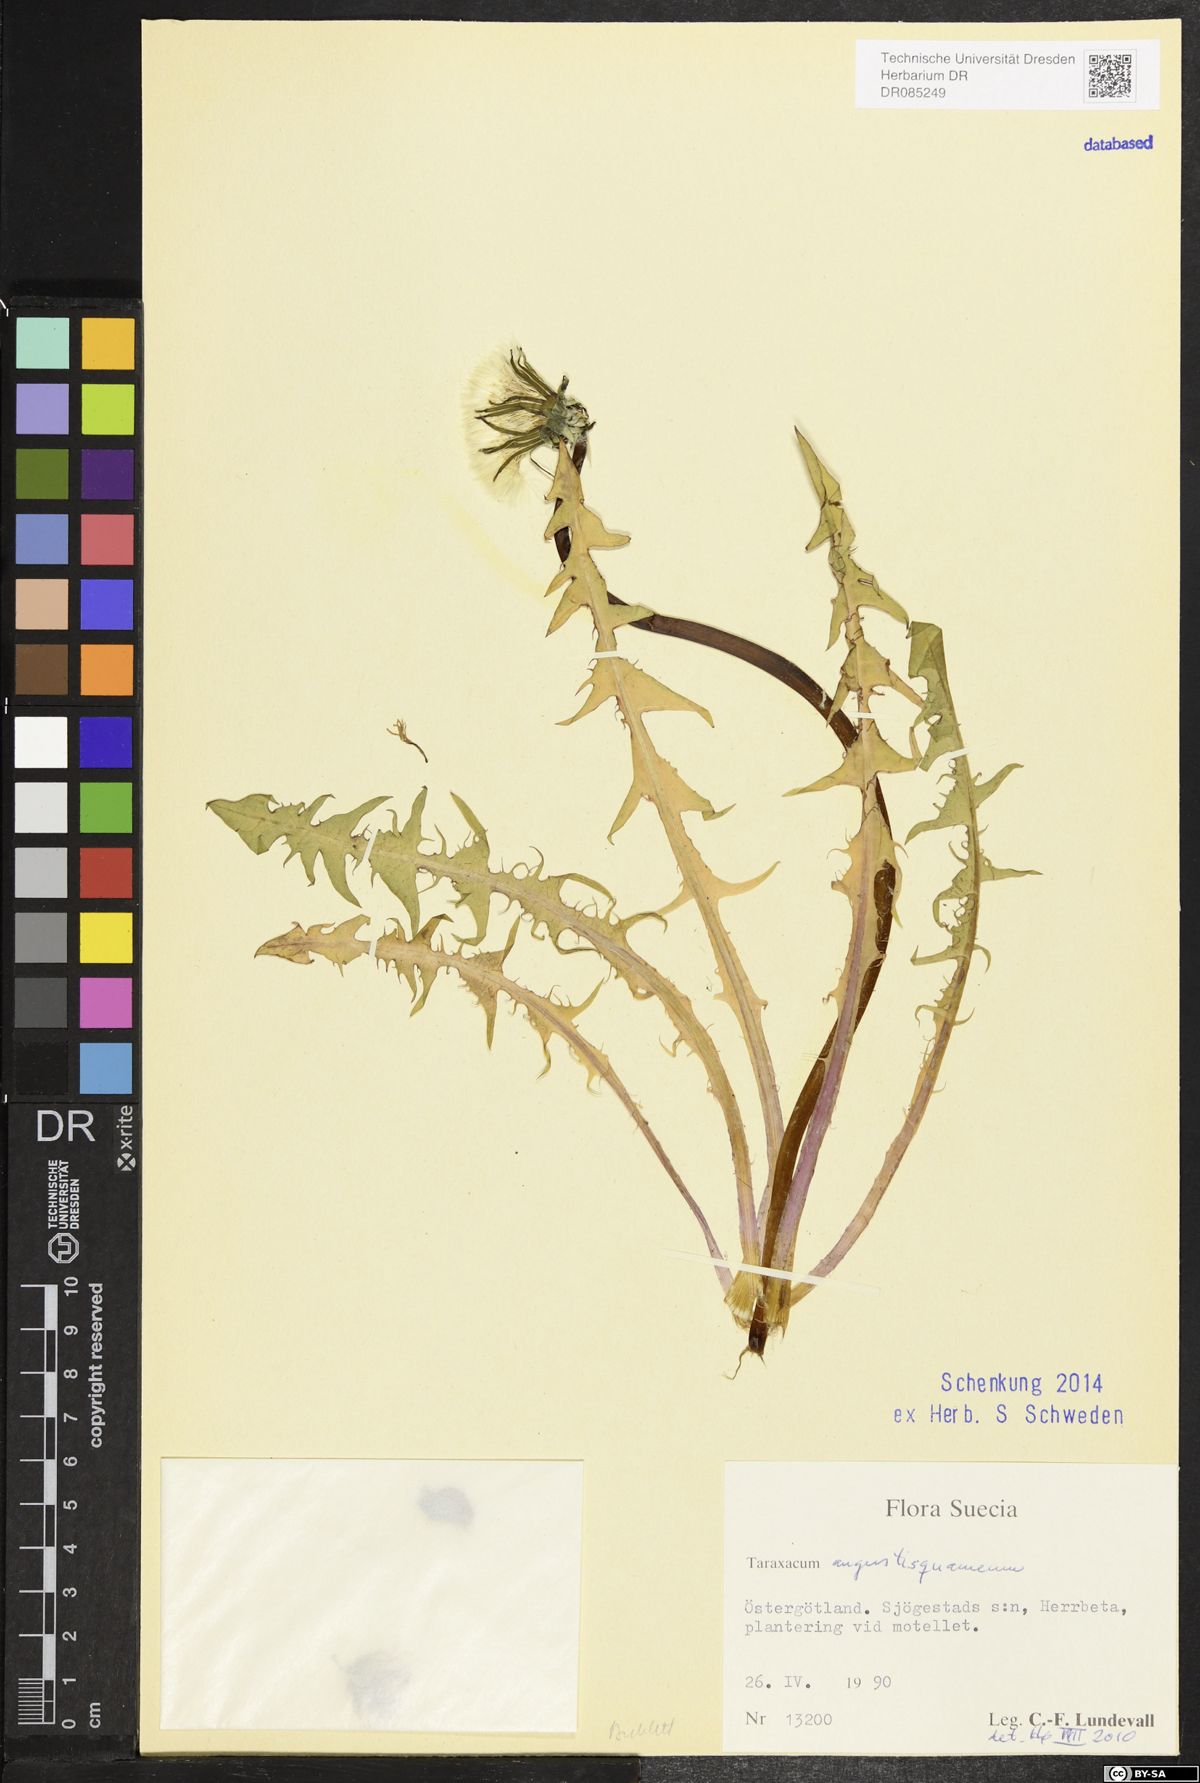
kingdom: Plantae
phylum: Tracheophyta
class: Magnoliopsida
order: Asterales
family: Asteraceae
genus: Taraxacum
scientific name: Taraxacum angustisquameum
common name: Multilobed dandelion
